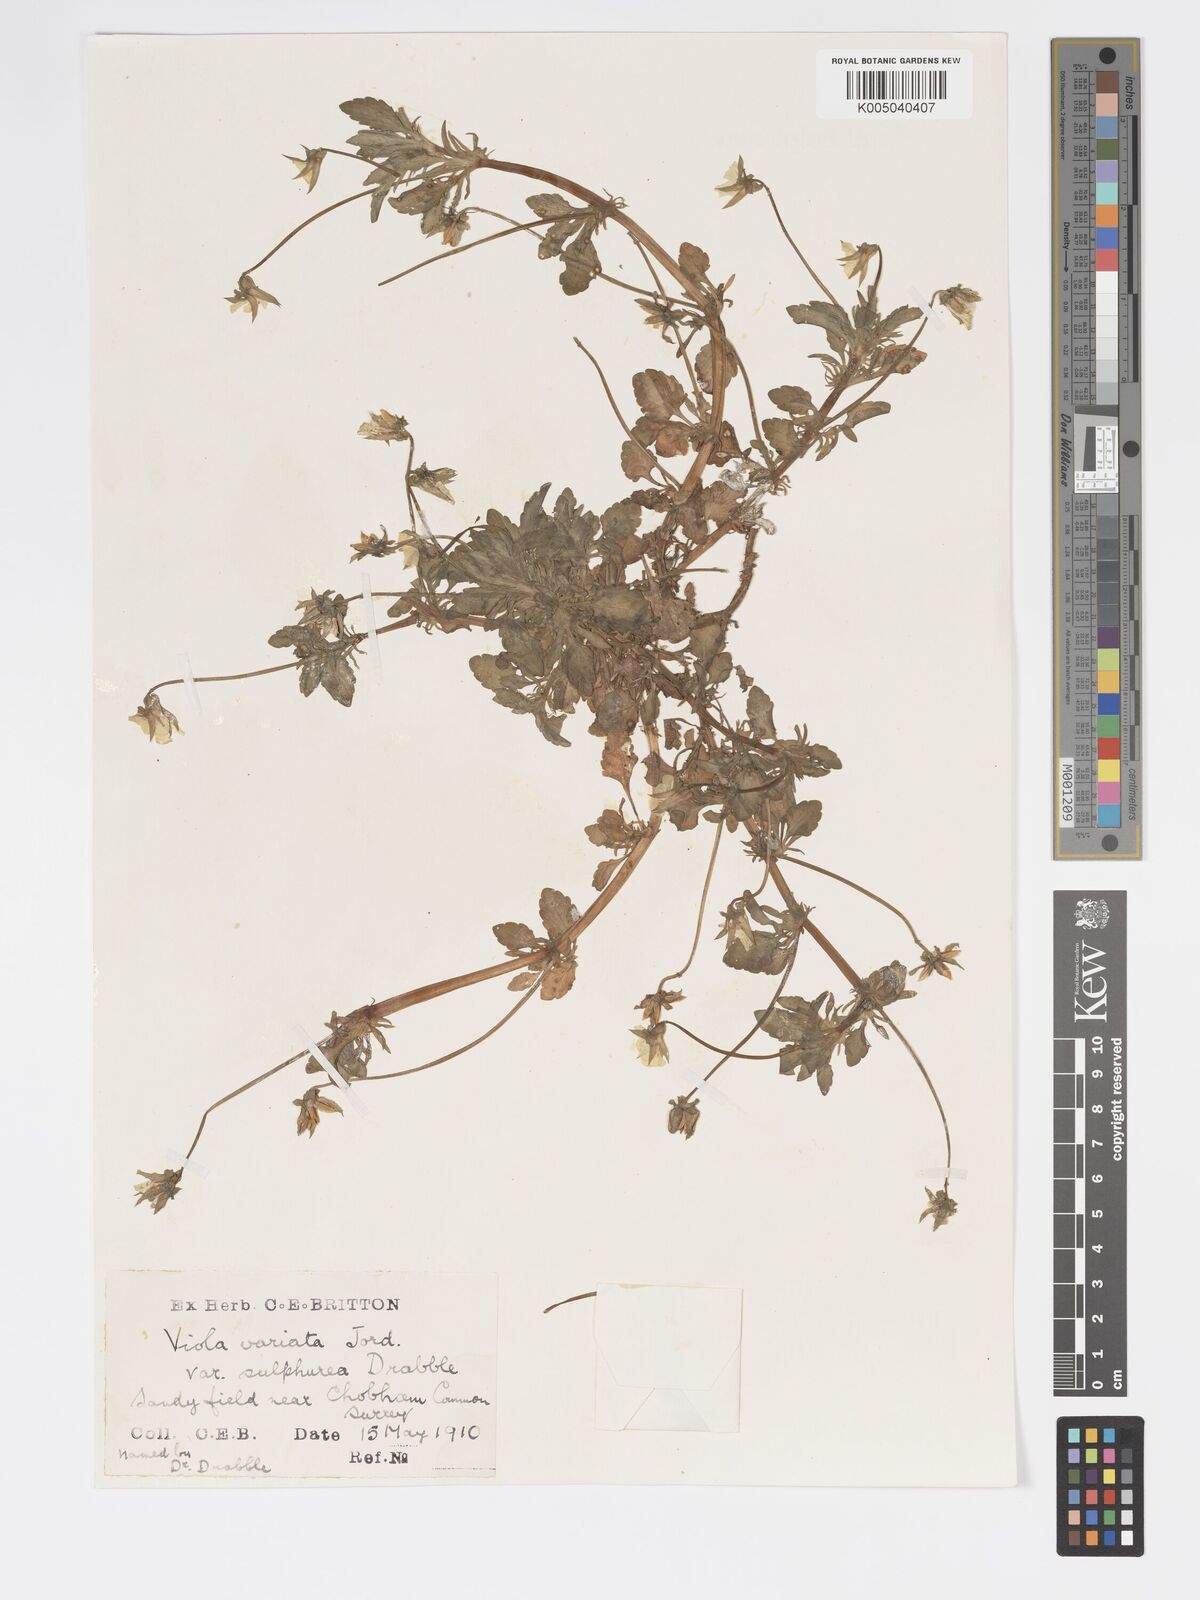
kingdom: Plantae
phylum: Tracheophyta
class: Magnoliopsida
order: Malpighiales
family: Violaceae
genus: Viola
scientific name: Viola arvensis
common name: Field pansy
